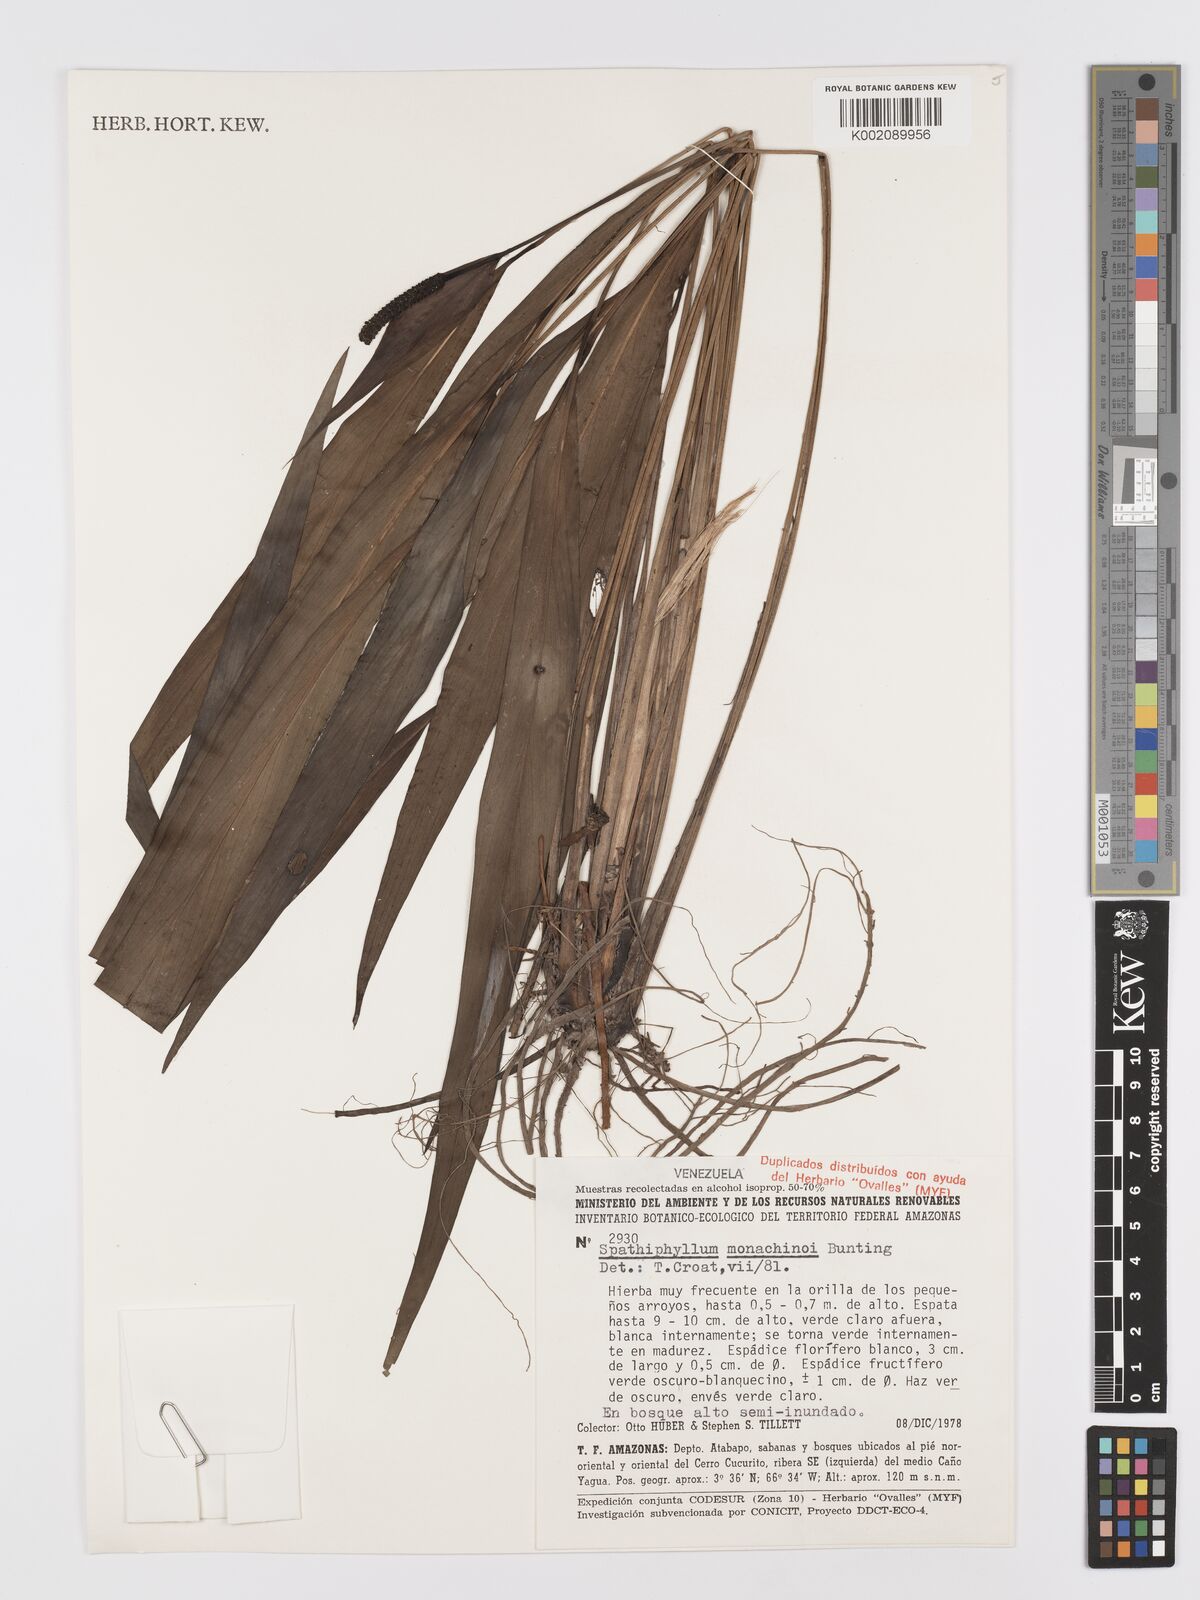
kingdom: Plantae
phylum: Tracheophyta
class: Liliopsida
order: Alismatales
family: Araceae
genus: Spathiphyllum
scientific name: Spathiphyllum monachinoi
